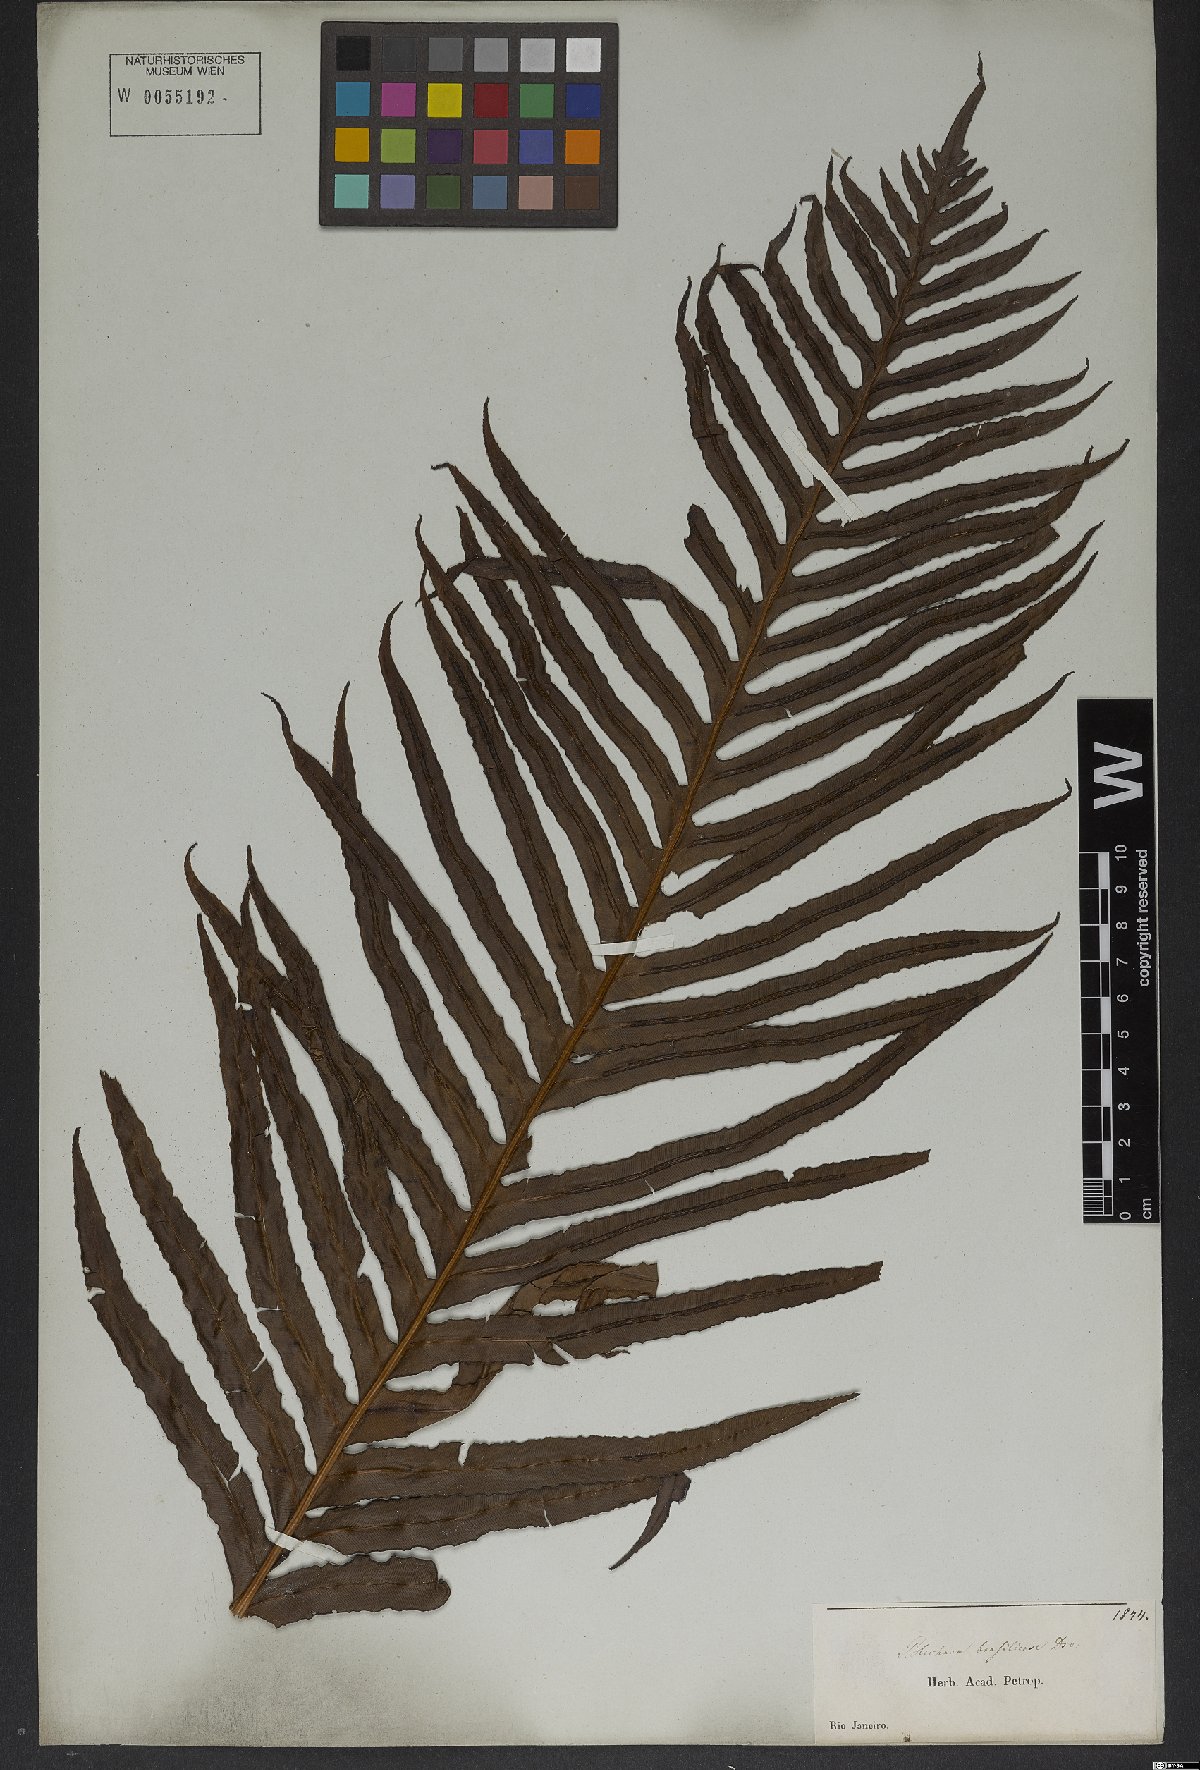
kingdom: Plantae
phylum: Tracheophyta
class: Polypodiopsida
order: Polypodiales
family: Blechnaceae
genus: Neoblechnum
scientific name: Neoblechnum brasiliense
